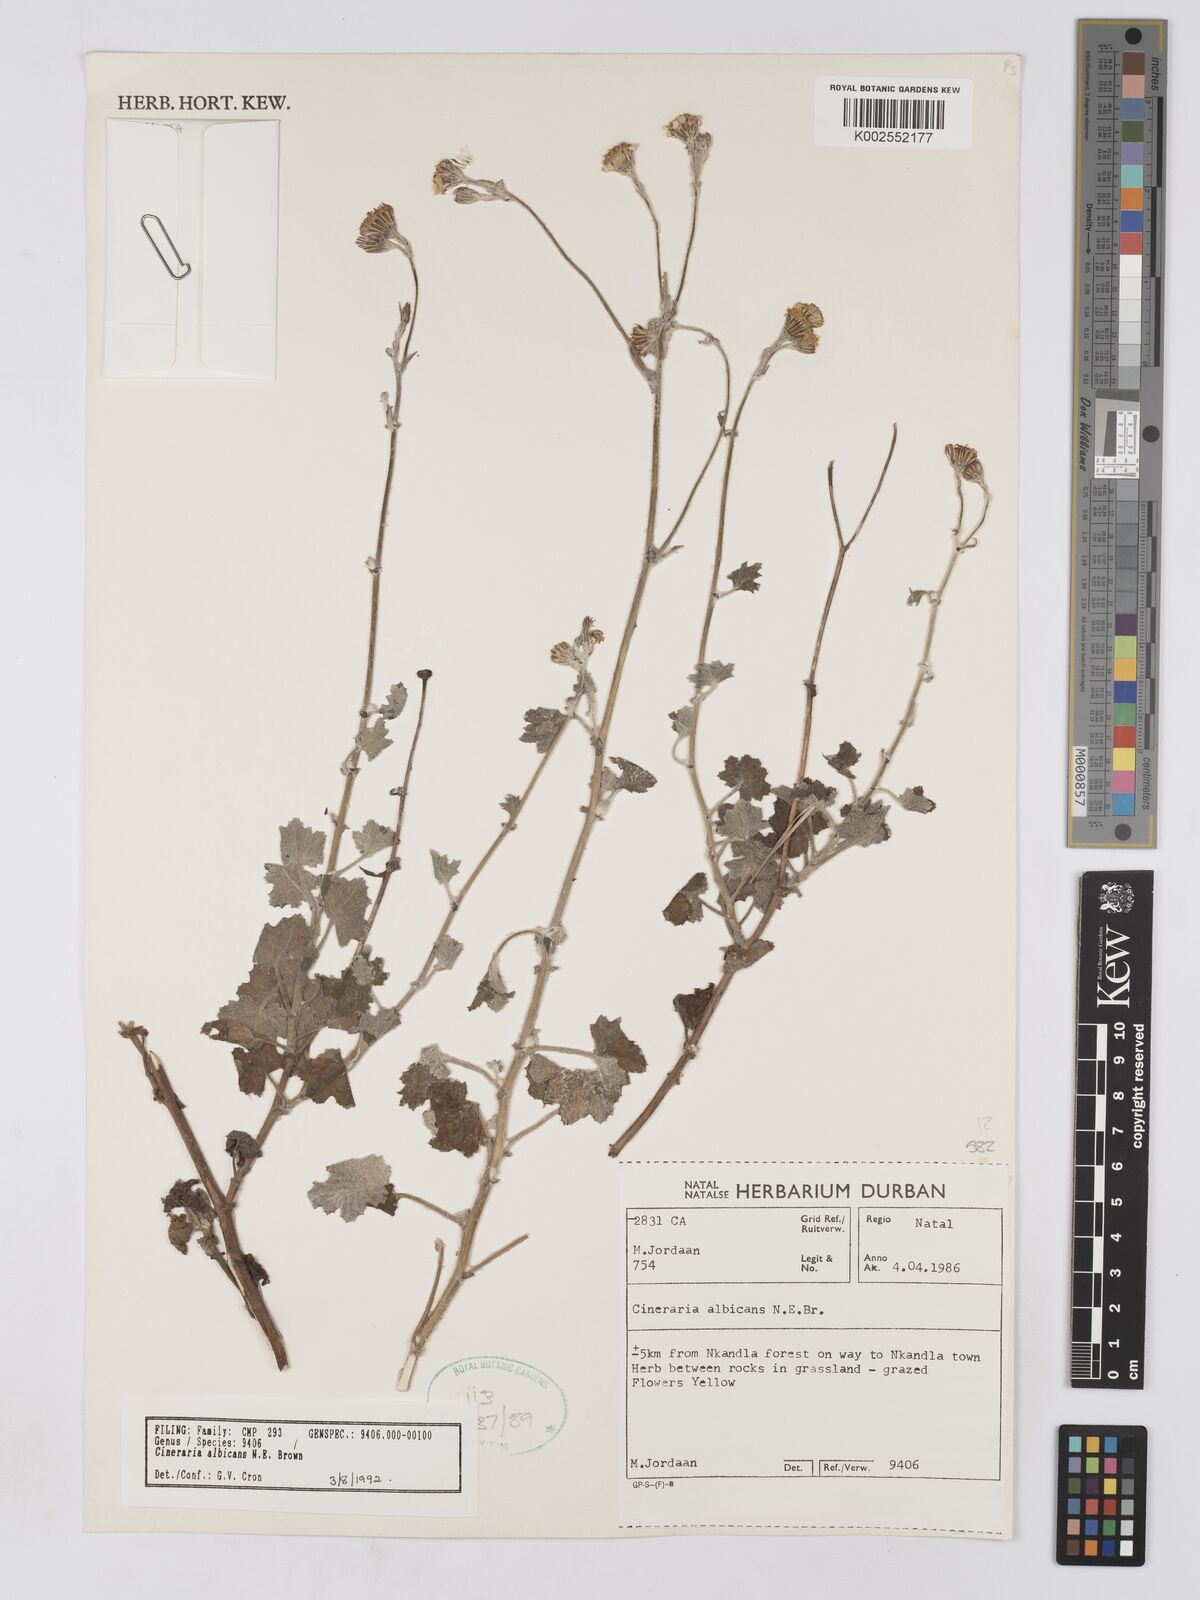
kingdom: Plantae
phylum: Tracheophyta
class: Magnoliopsida
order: Asterales
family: Asteraceae
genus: Cineraria
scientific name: Cineraria albicans
